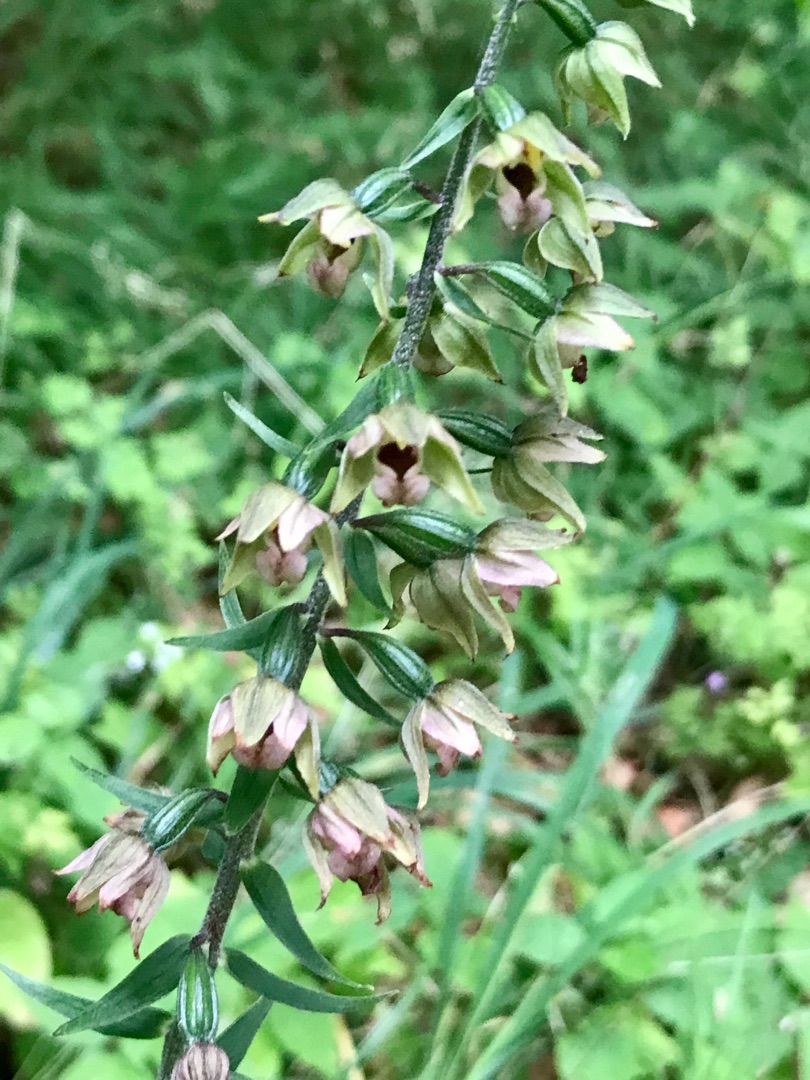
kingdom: Plantae
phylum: Tracheophyta
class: Liliopsida
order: Asparagales
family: Orchidaceae
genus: Epipactis
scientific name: Epipactis helleborine
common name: Skov-hullæbe
